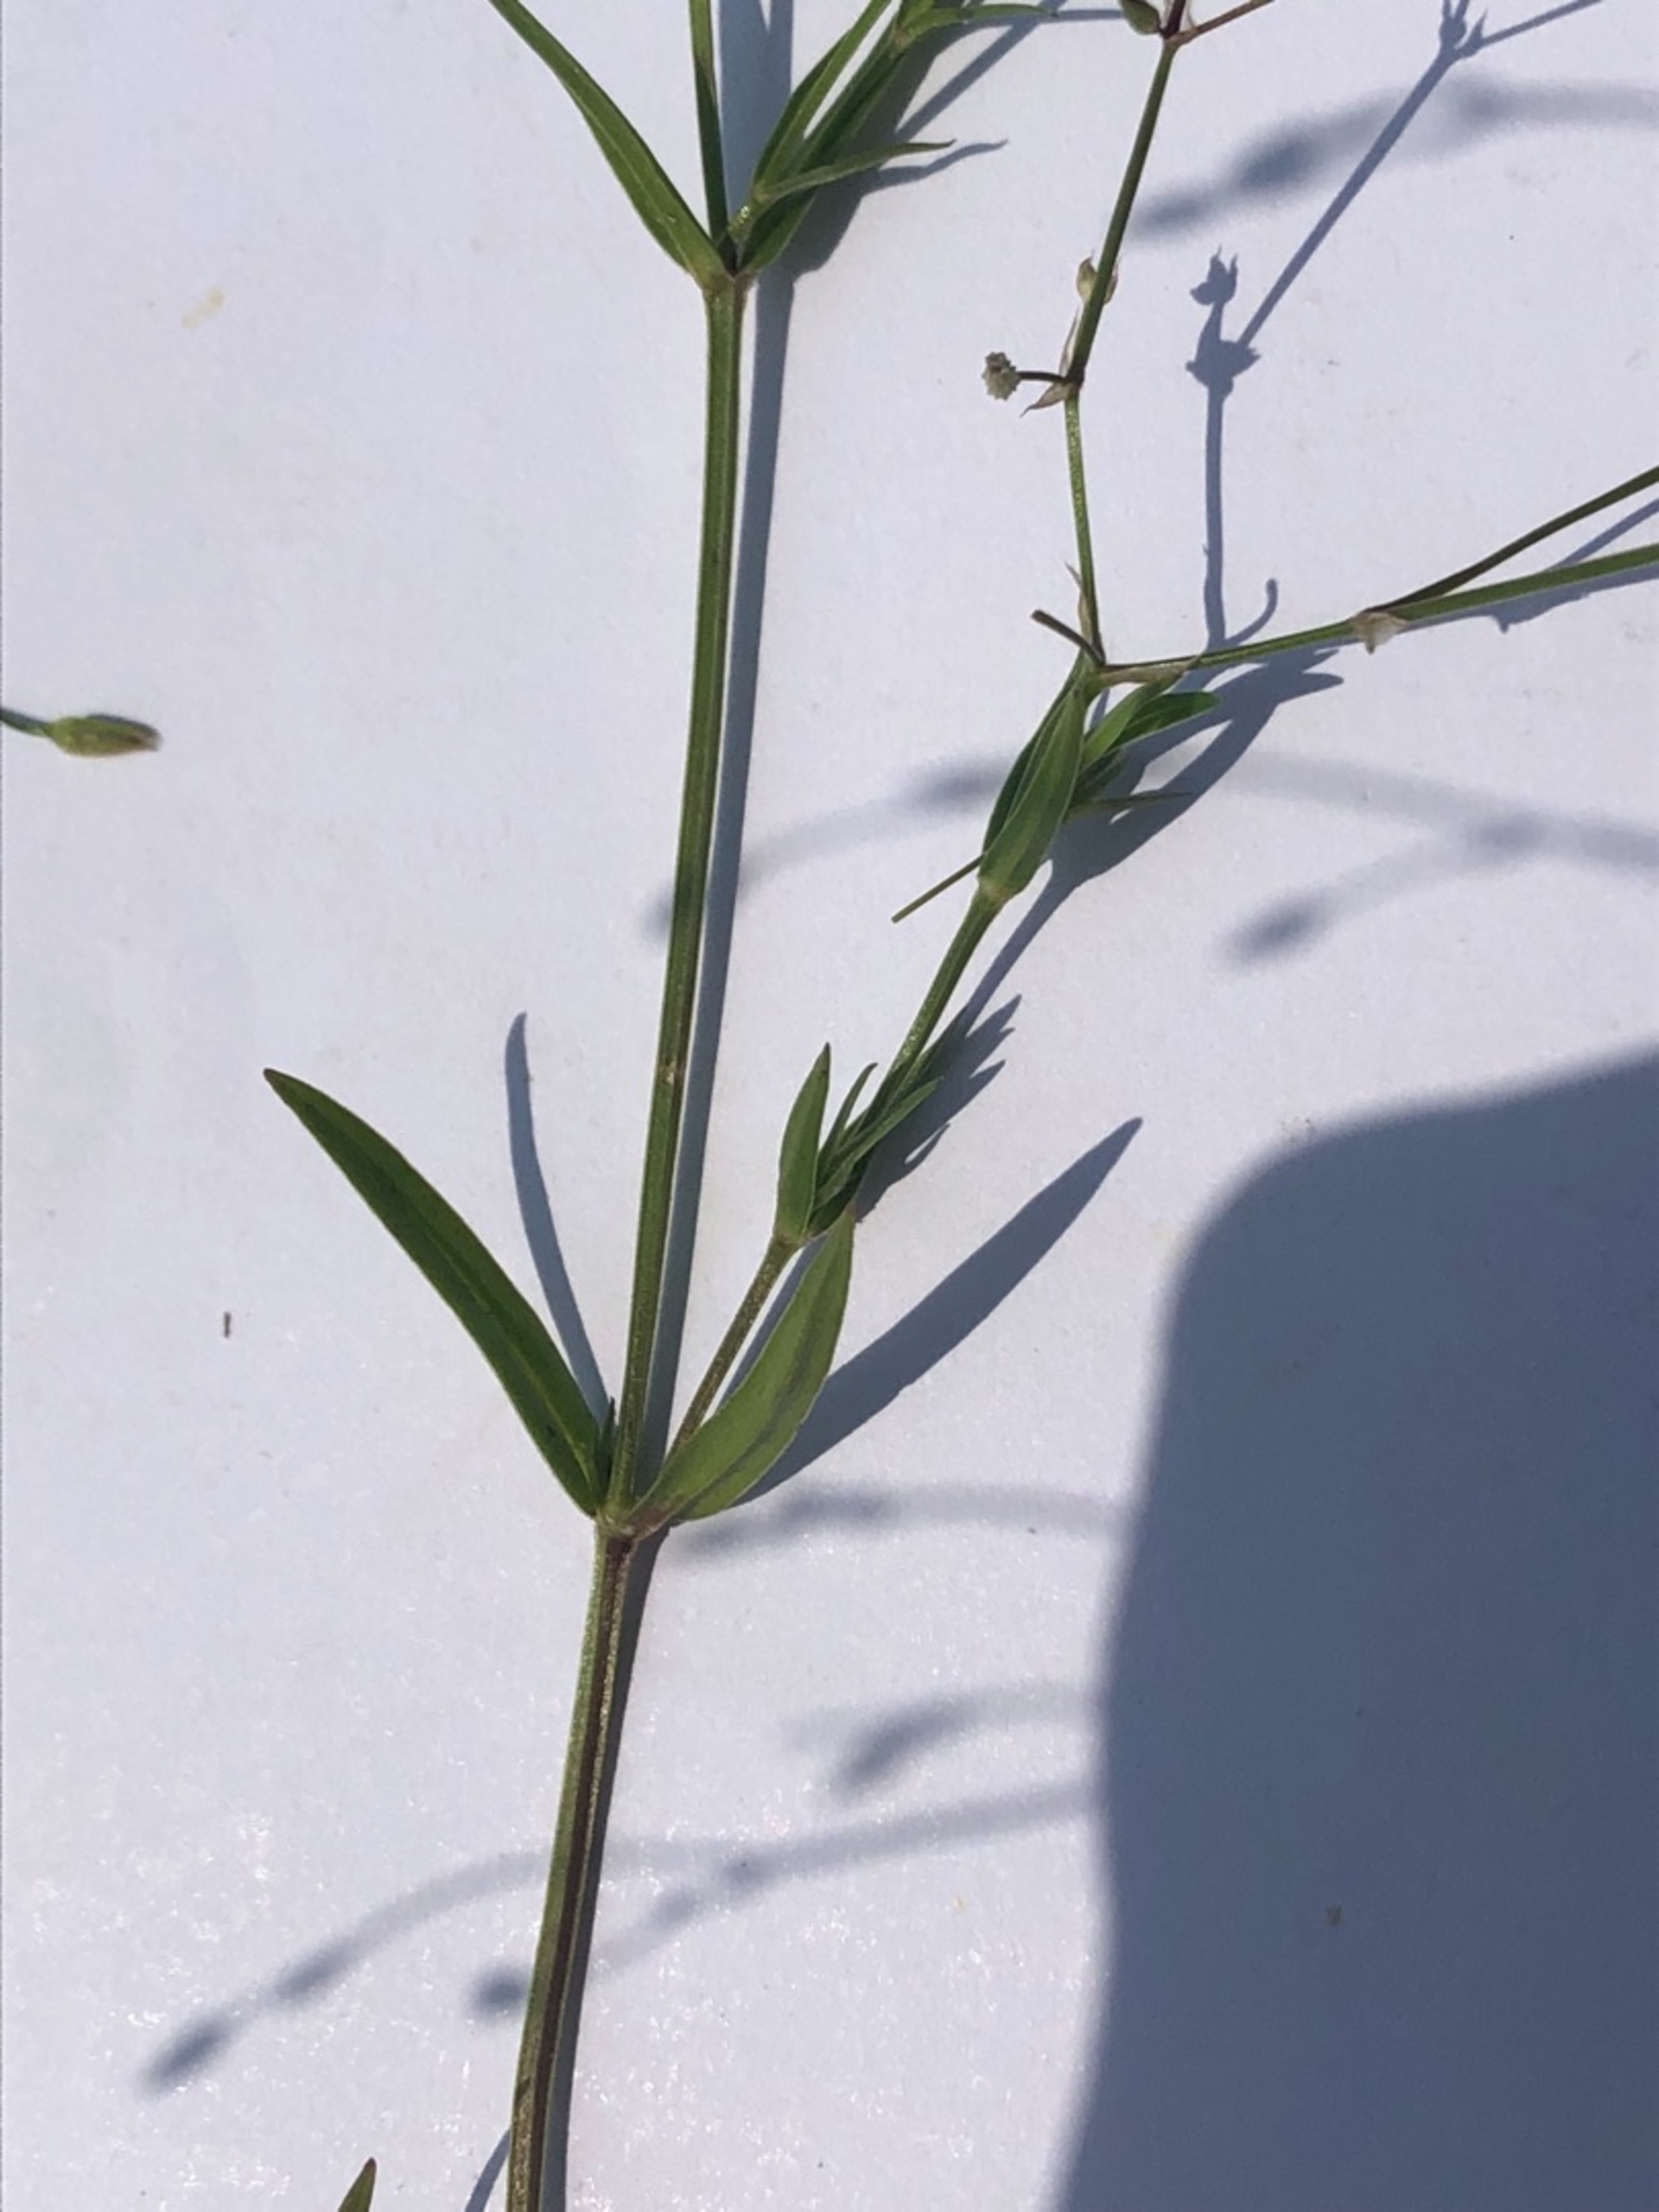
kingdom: Plantae
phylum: Tracheophyta
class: Magnoliopsida
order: Caryophyllales
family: Caryophyllaceae
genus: Stellaria
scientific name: Stellaria palustris
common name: Kær-fladstjerne
